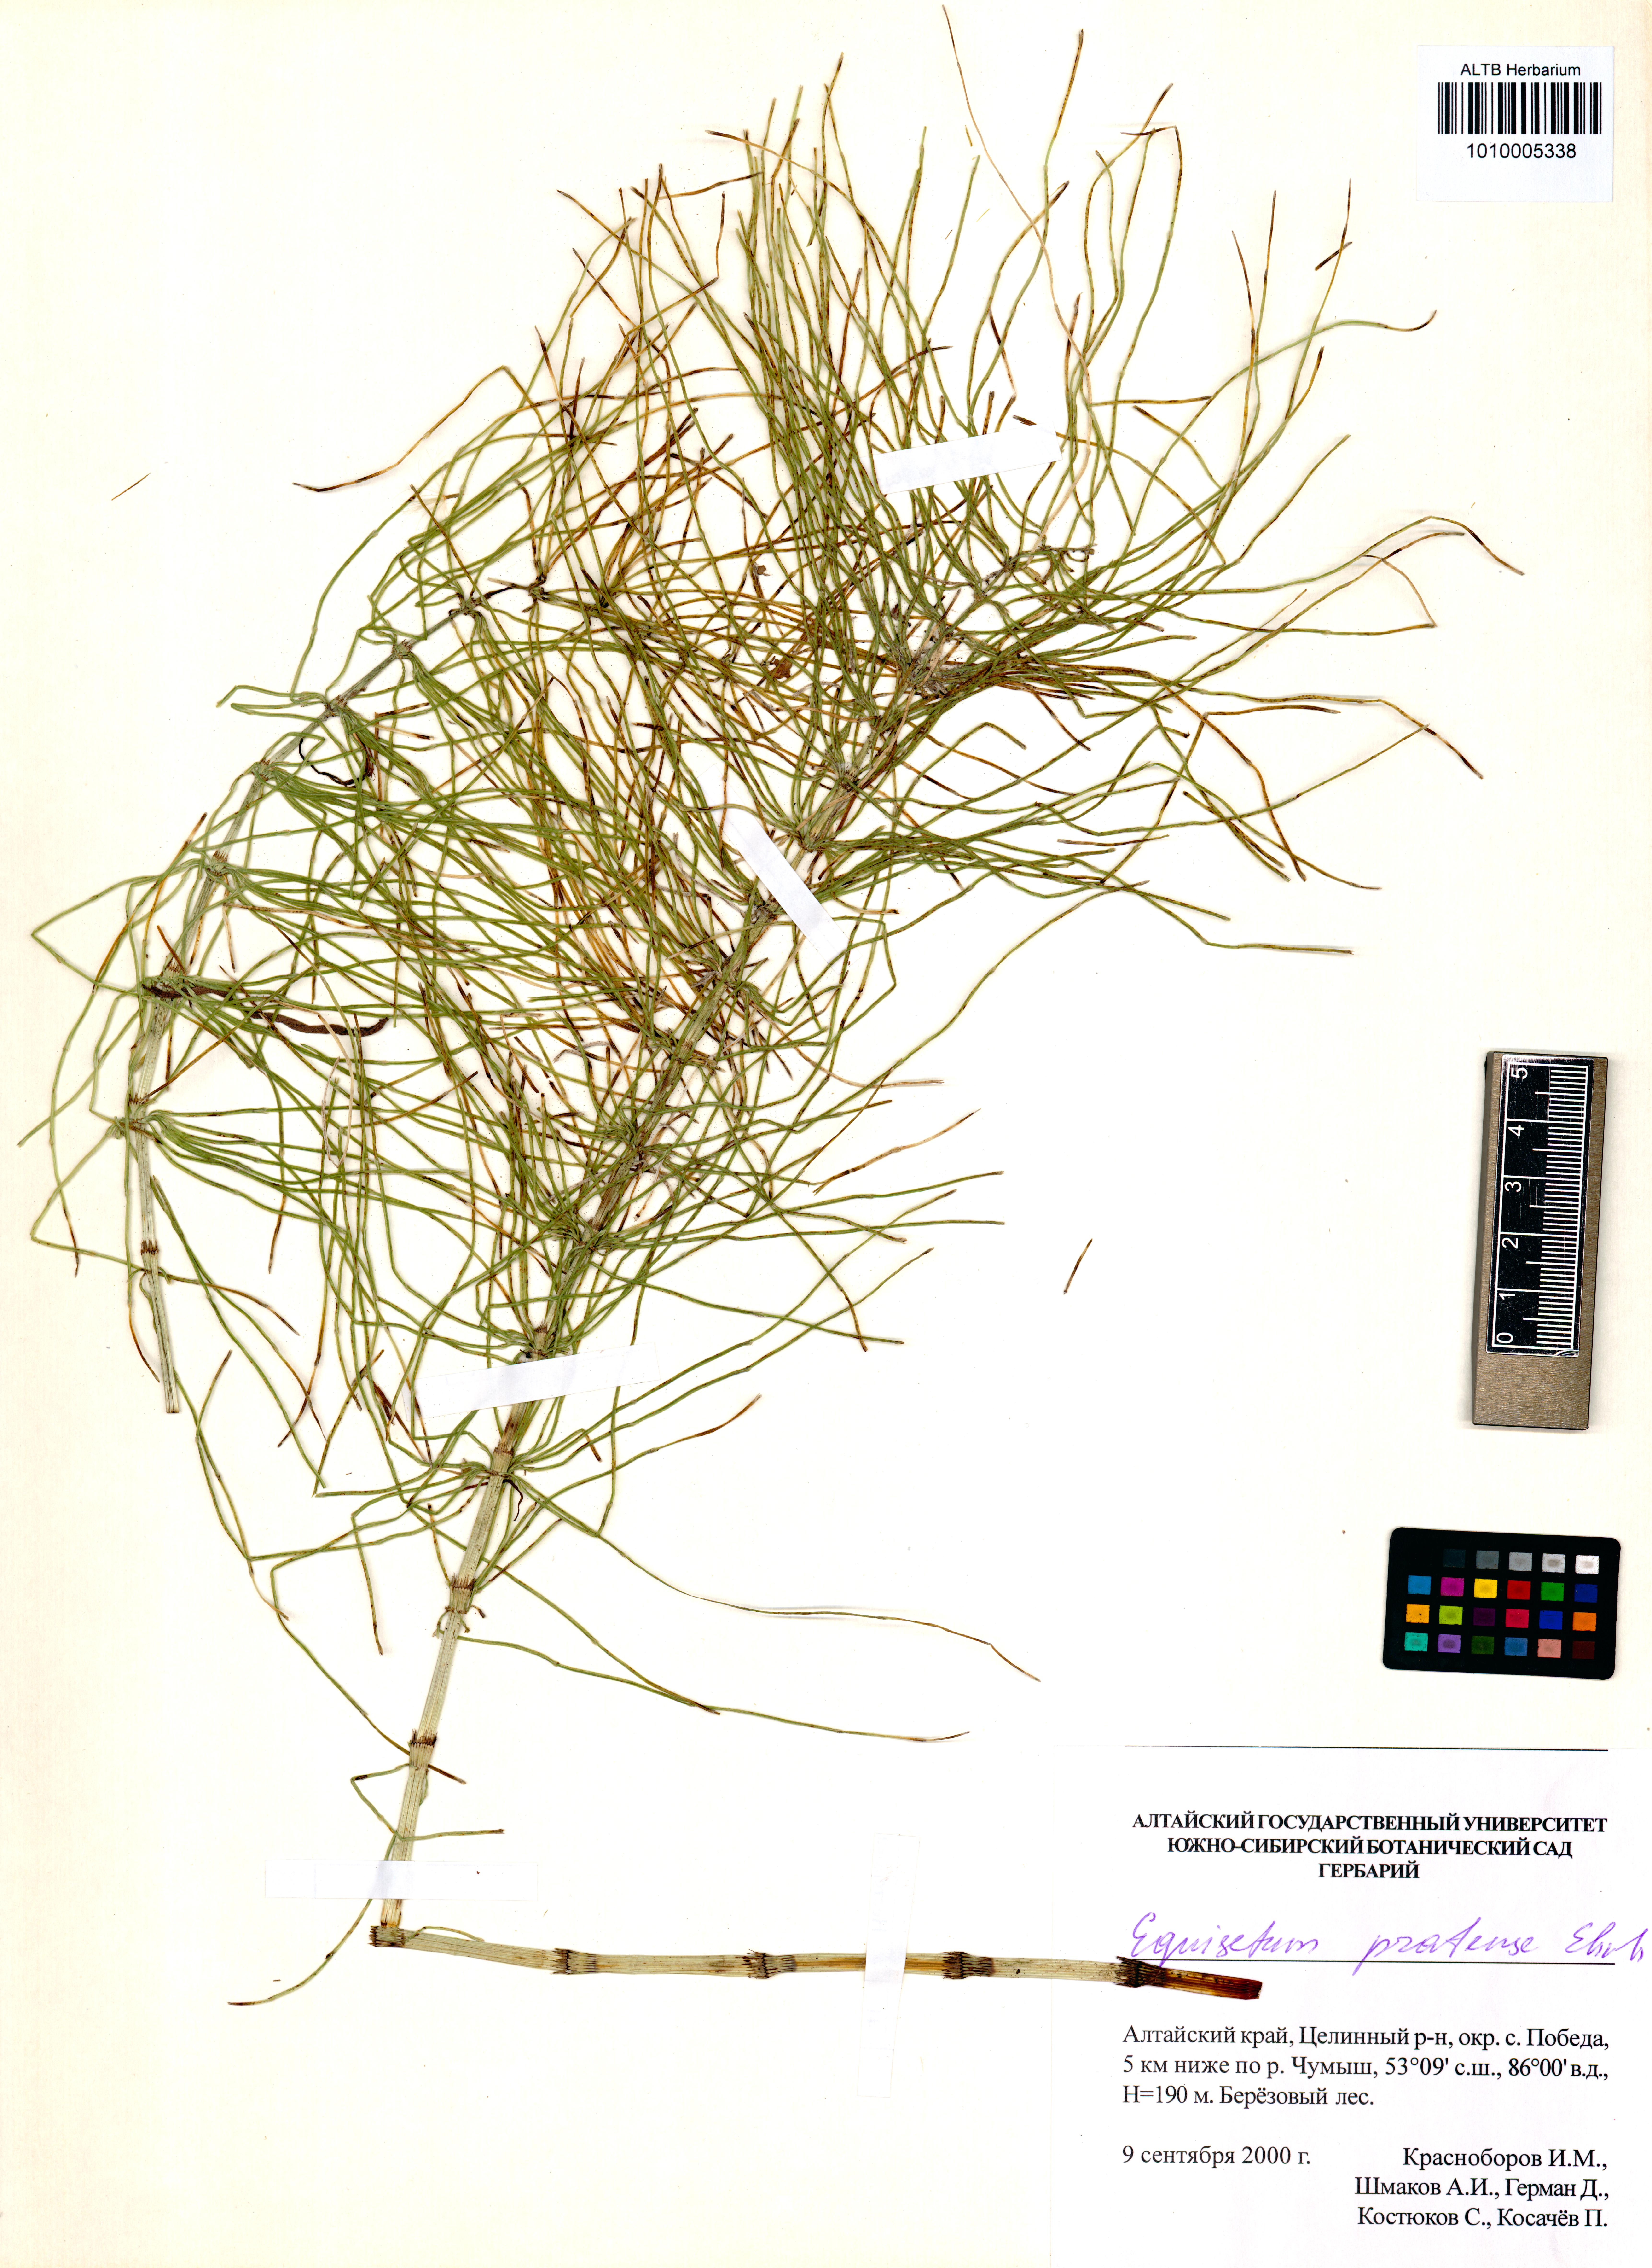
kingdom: Plantae
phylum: Tracheophyta
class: Polypodiopsida
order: Equisetales
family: Equisetaceae
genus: Equisetum
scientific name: Equisetum pratense
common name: Meadow horsetail
